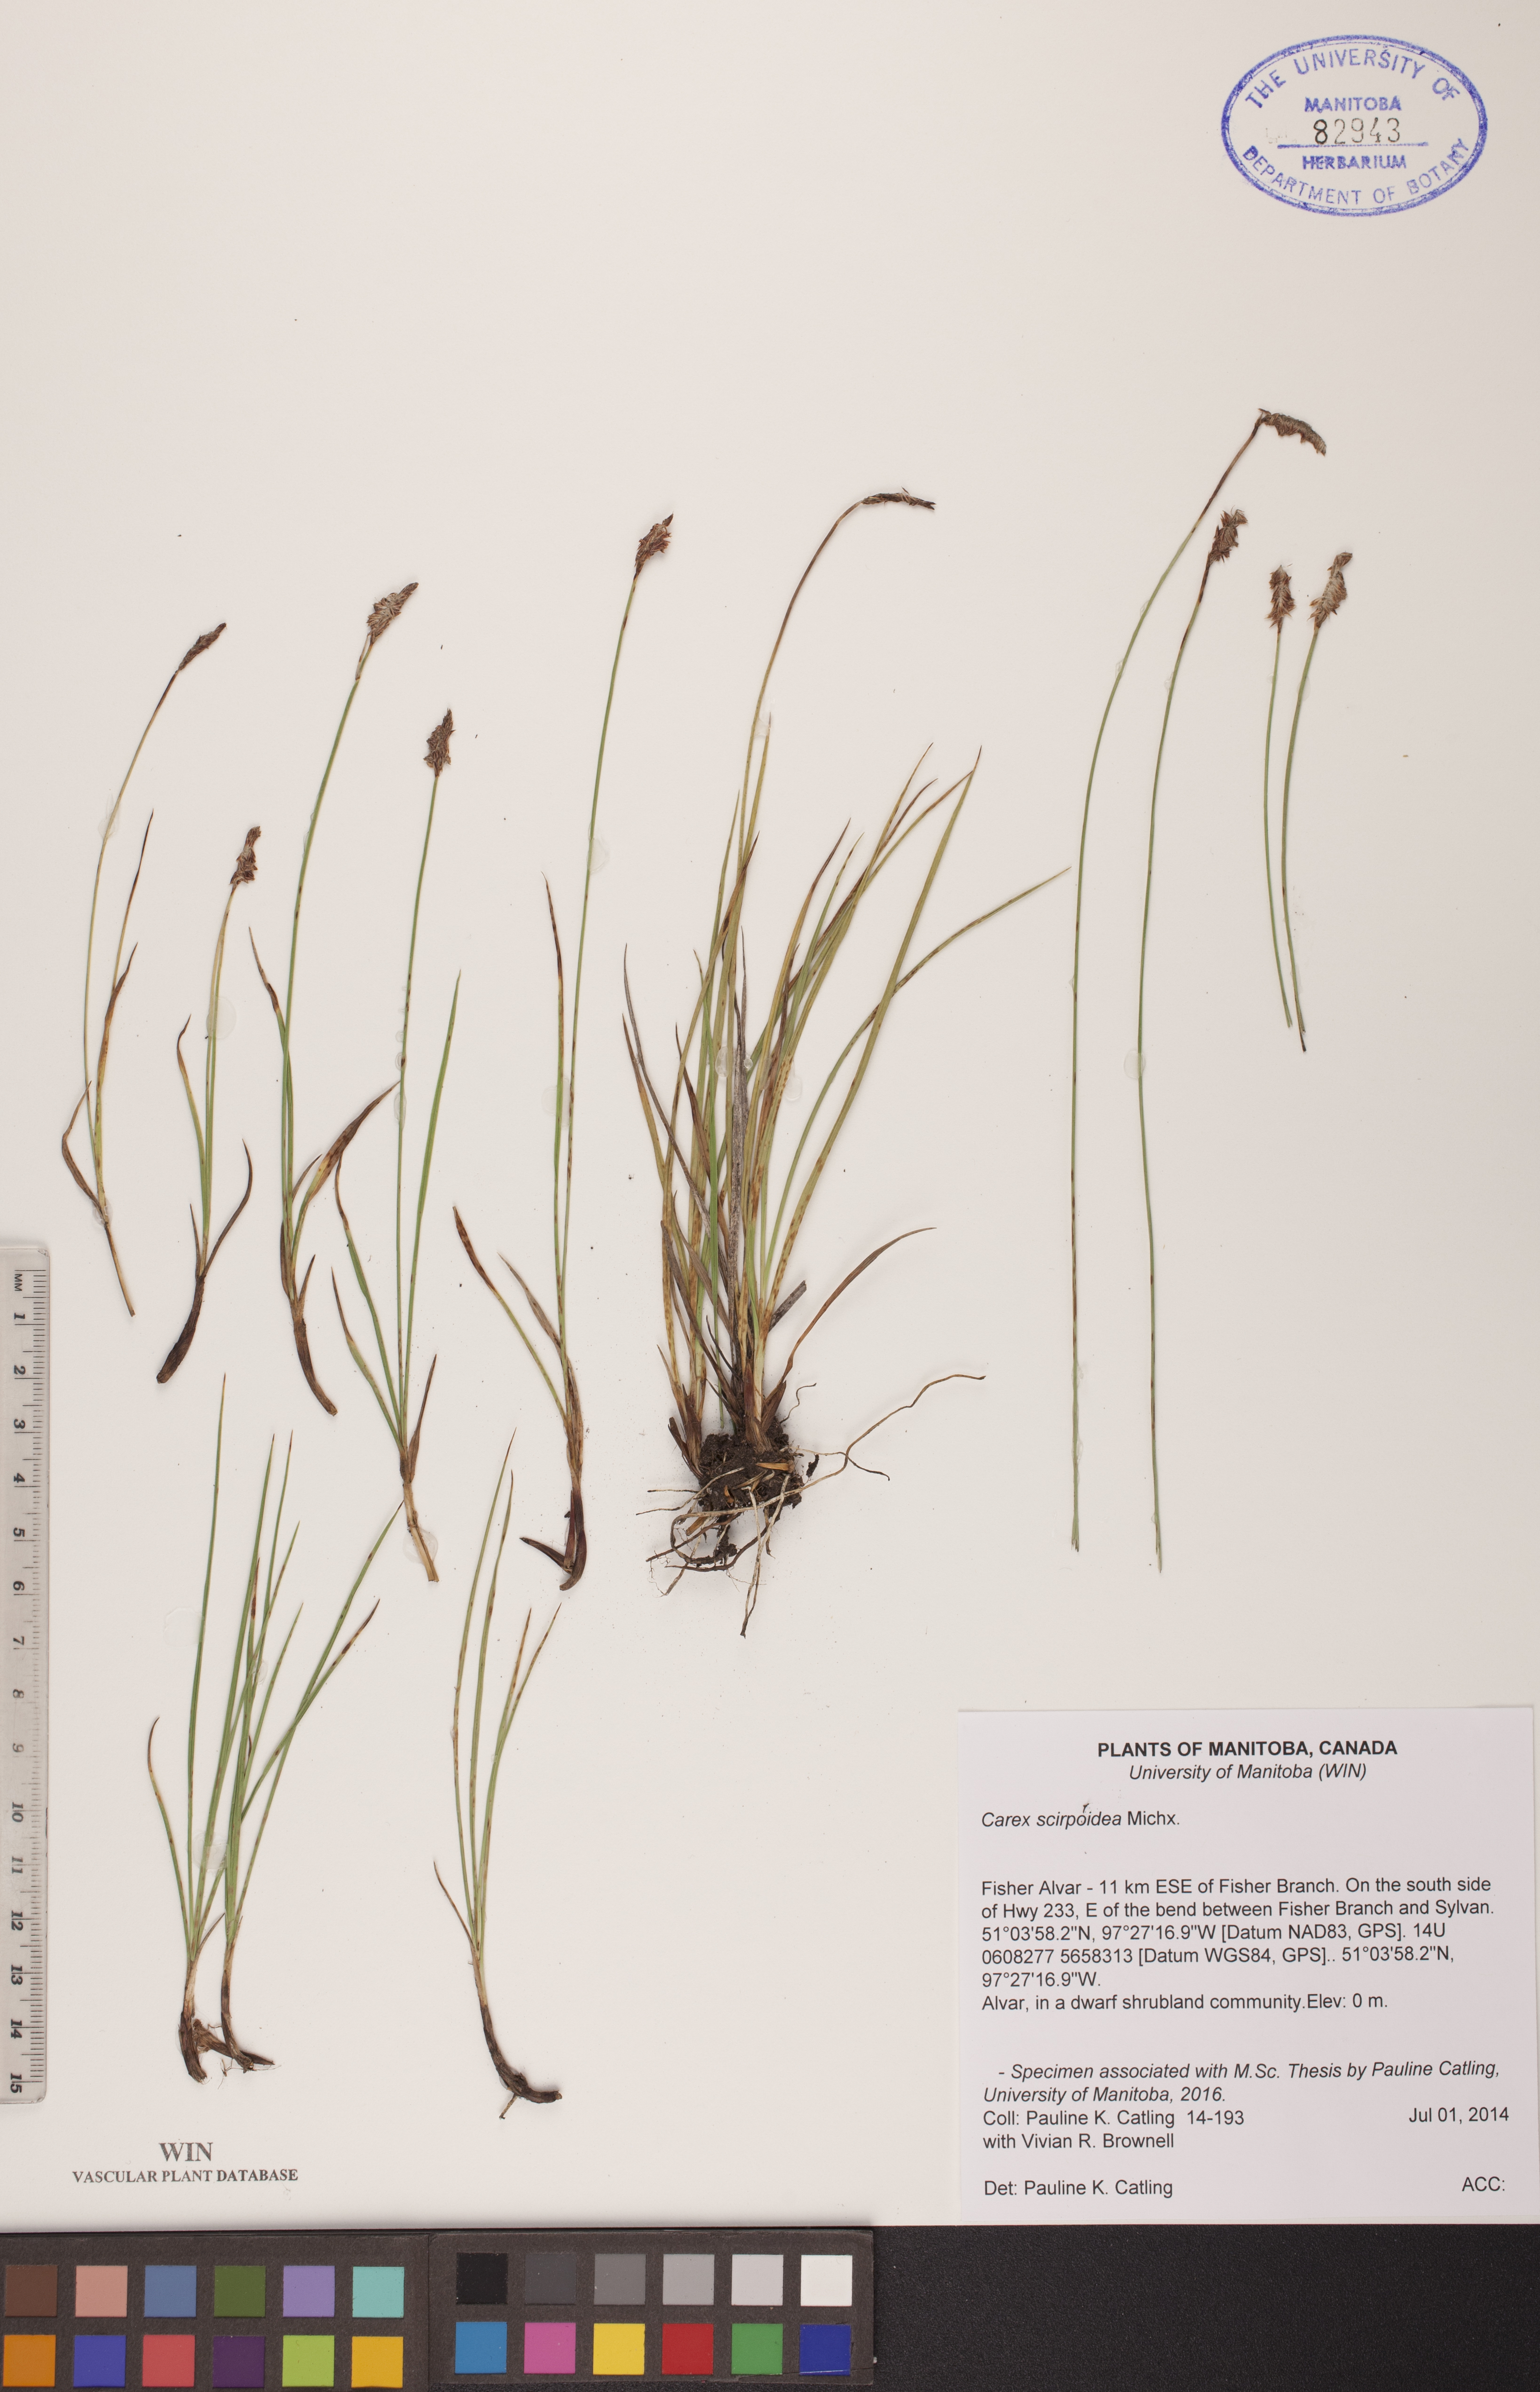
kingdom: Plantae
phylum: Tracheophyta
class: Liliopsida
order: Poales
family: Cyperaceae
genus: Carex
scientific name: Carex scirpoidea
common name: Canada single-spike sedge
